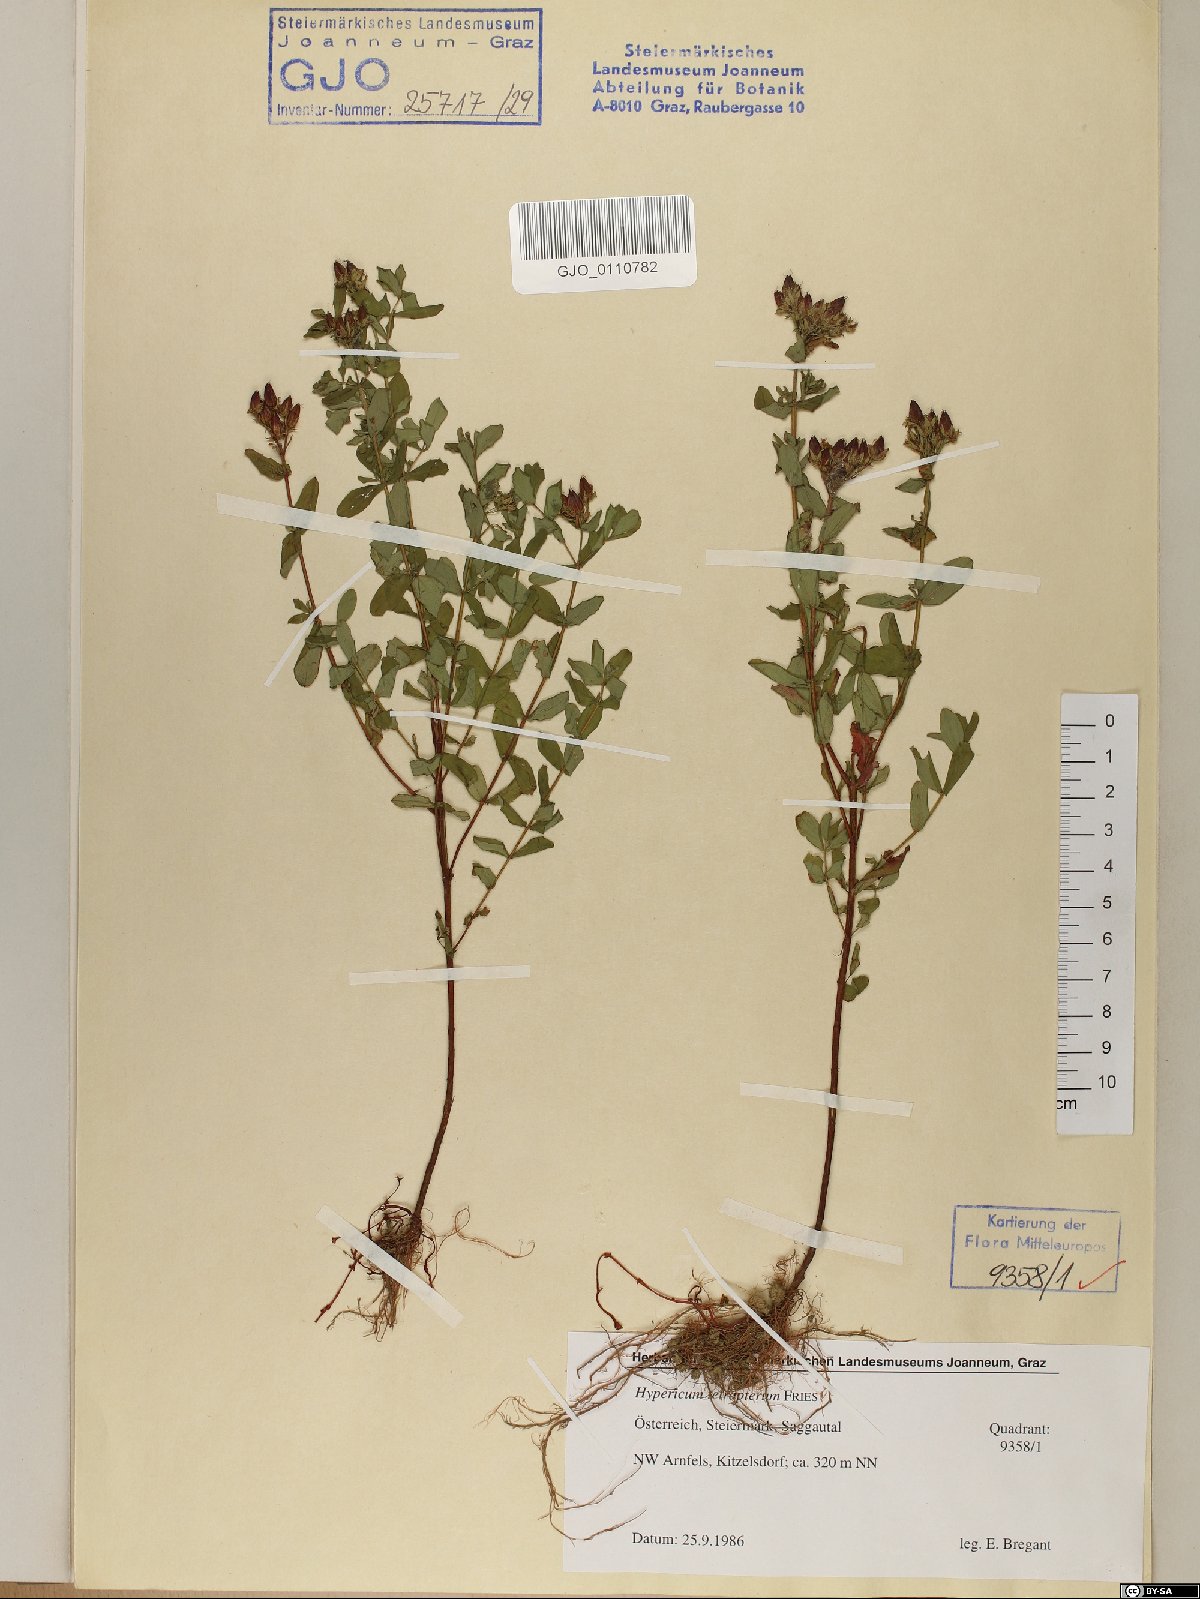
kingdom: Plantae
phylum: Tracheophyta
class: Magnoliopsida
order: Malpighiales
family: Hypericaceae
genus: Hypericum
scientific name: Hypericum tetrapterum
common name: Square-stalked st. john's-wort
